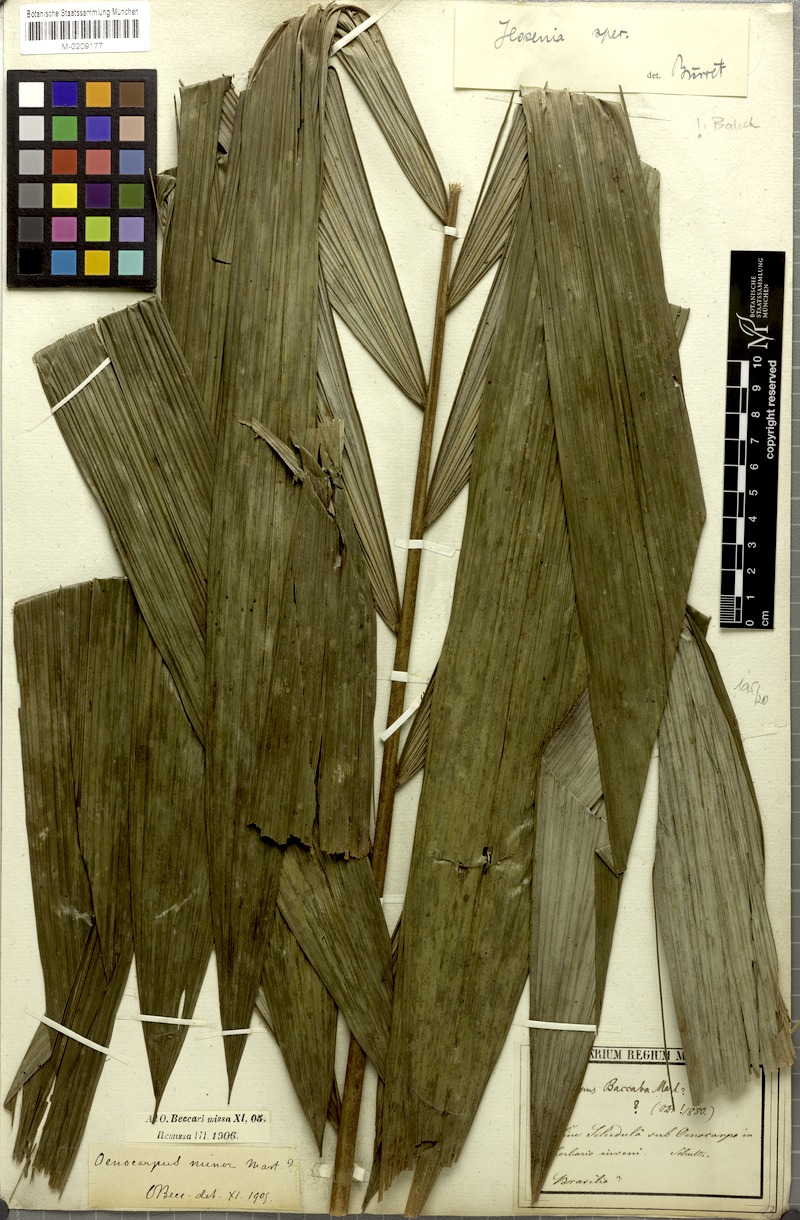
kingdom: Plantae
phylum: Tracheophyta
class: Liliopsida
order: Arecales
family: Arecaceae
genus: Oenocarpus
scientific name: Oenocarpus
